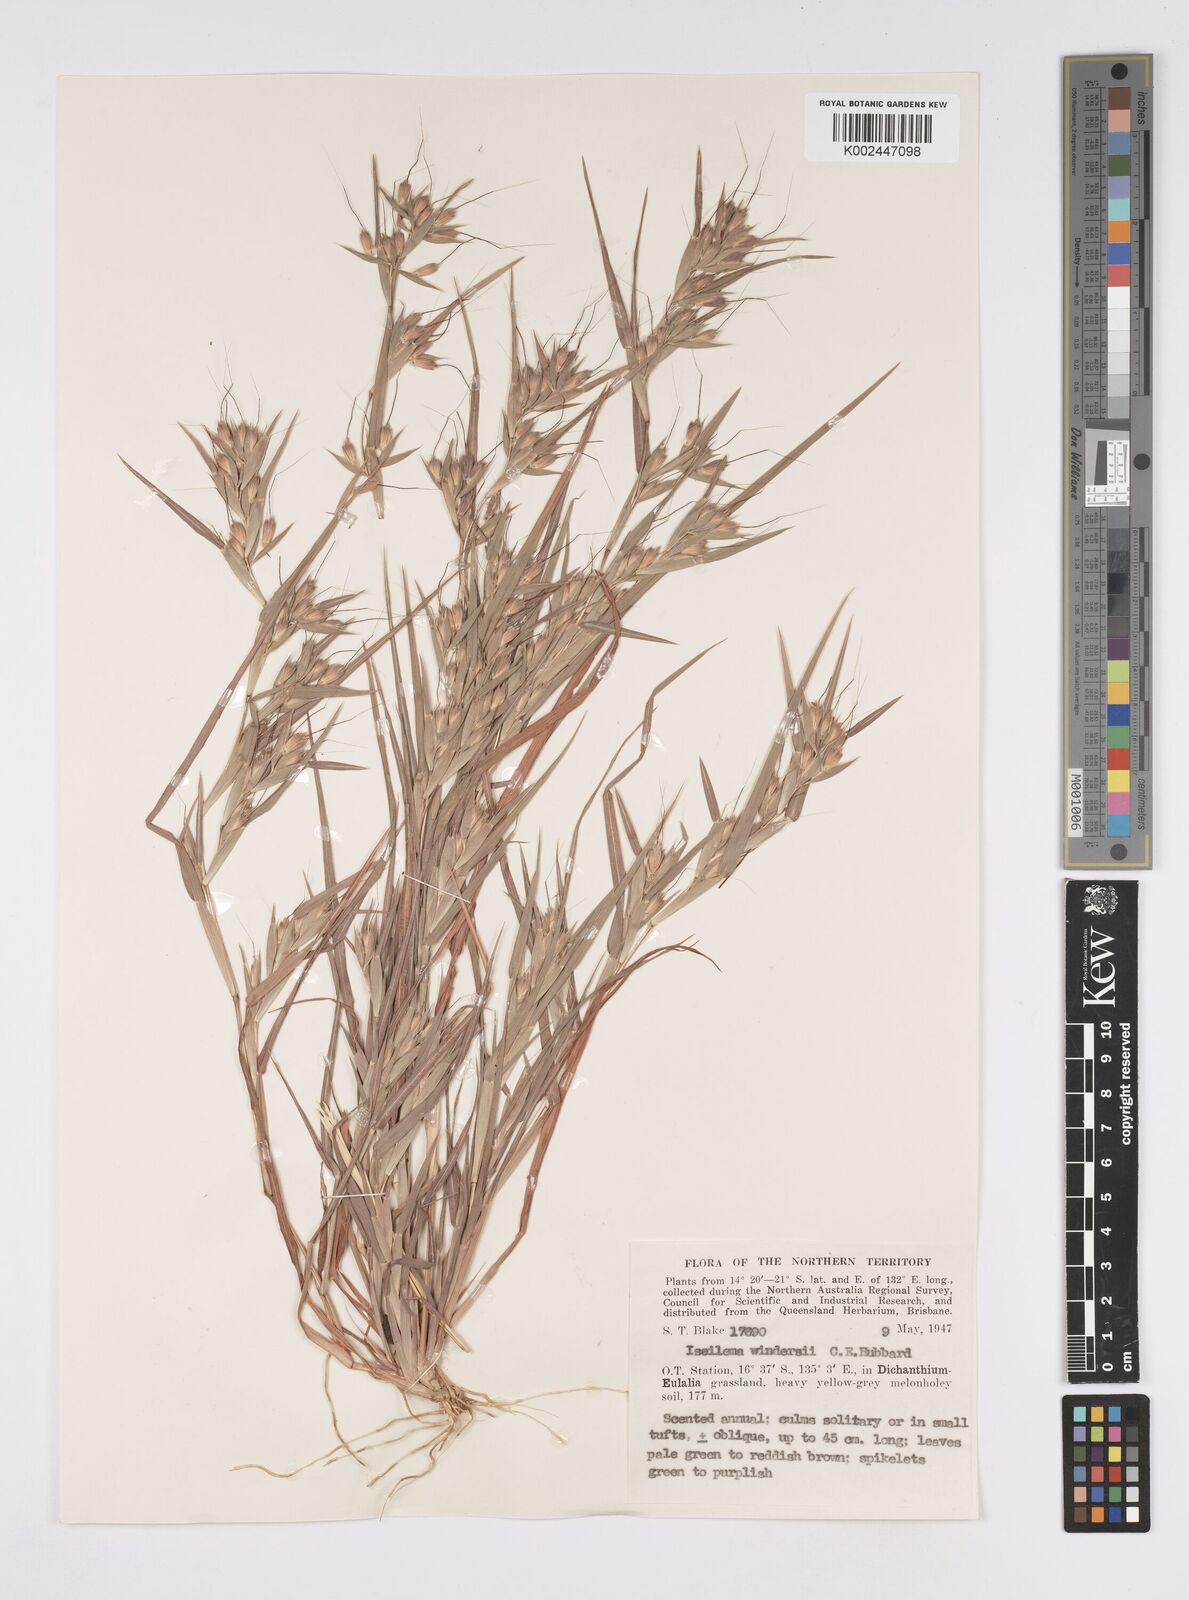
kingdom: Plantae
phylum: Tracheophyta
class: Liliopsida
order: Poales
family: Poaceae
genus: Iseilema
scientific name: Iseilema windersii
